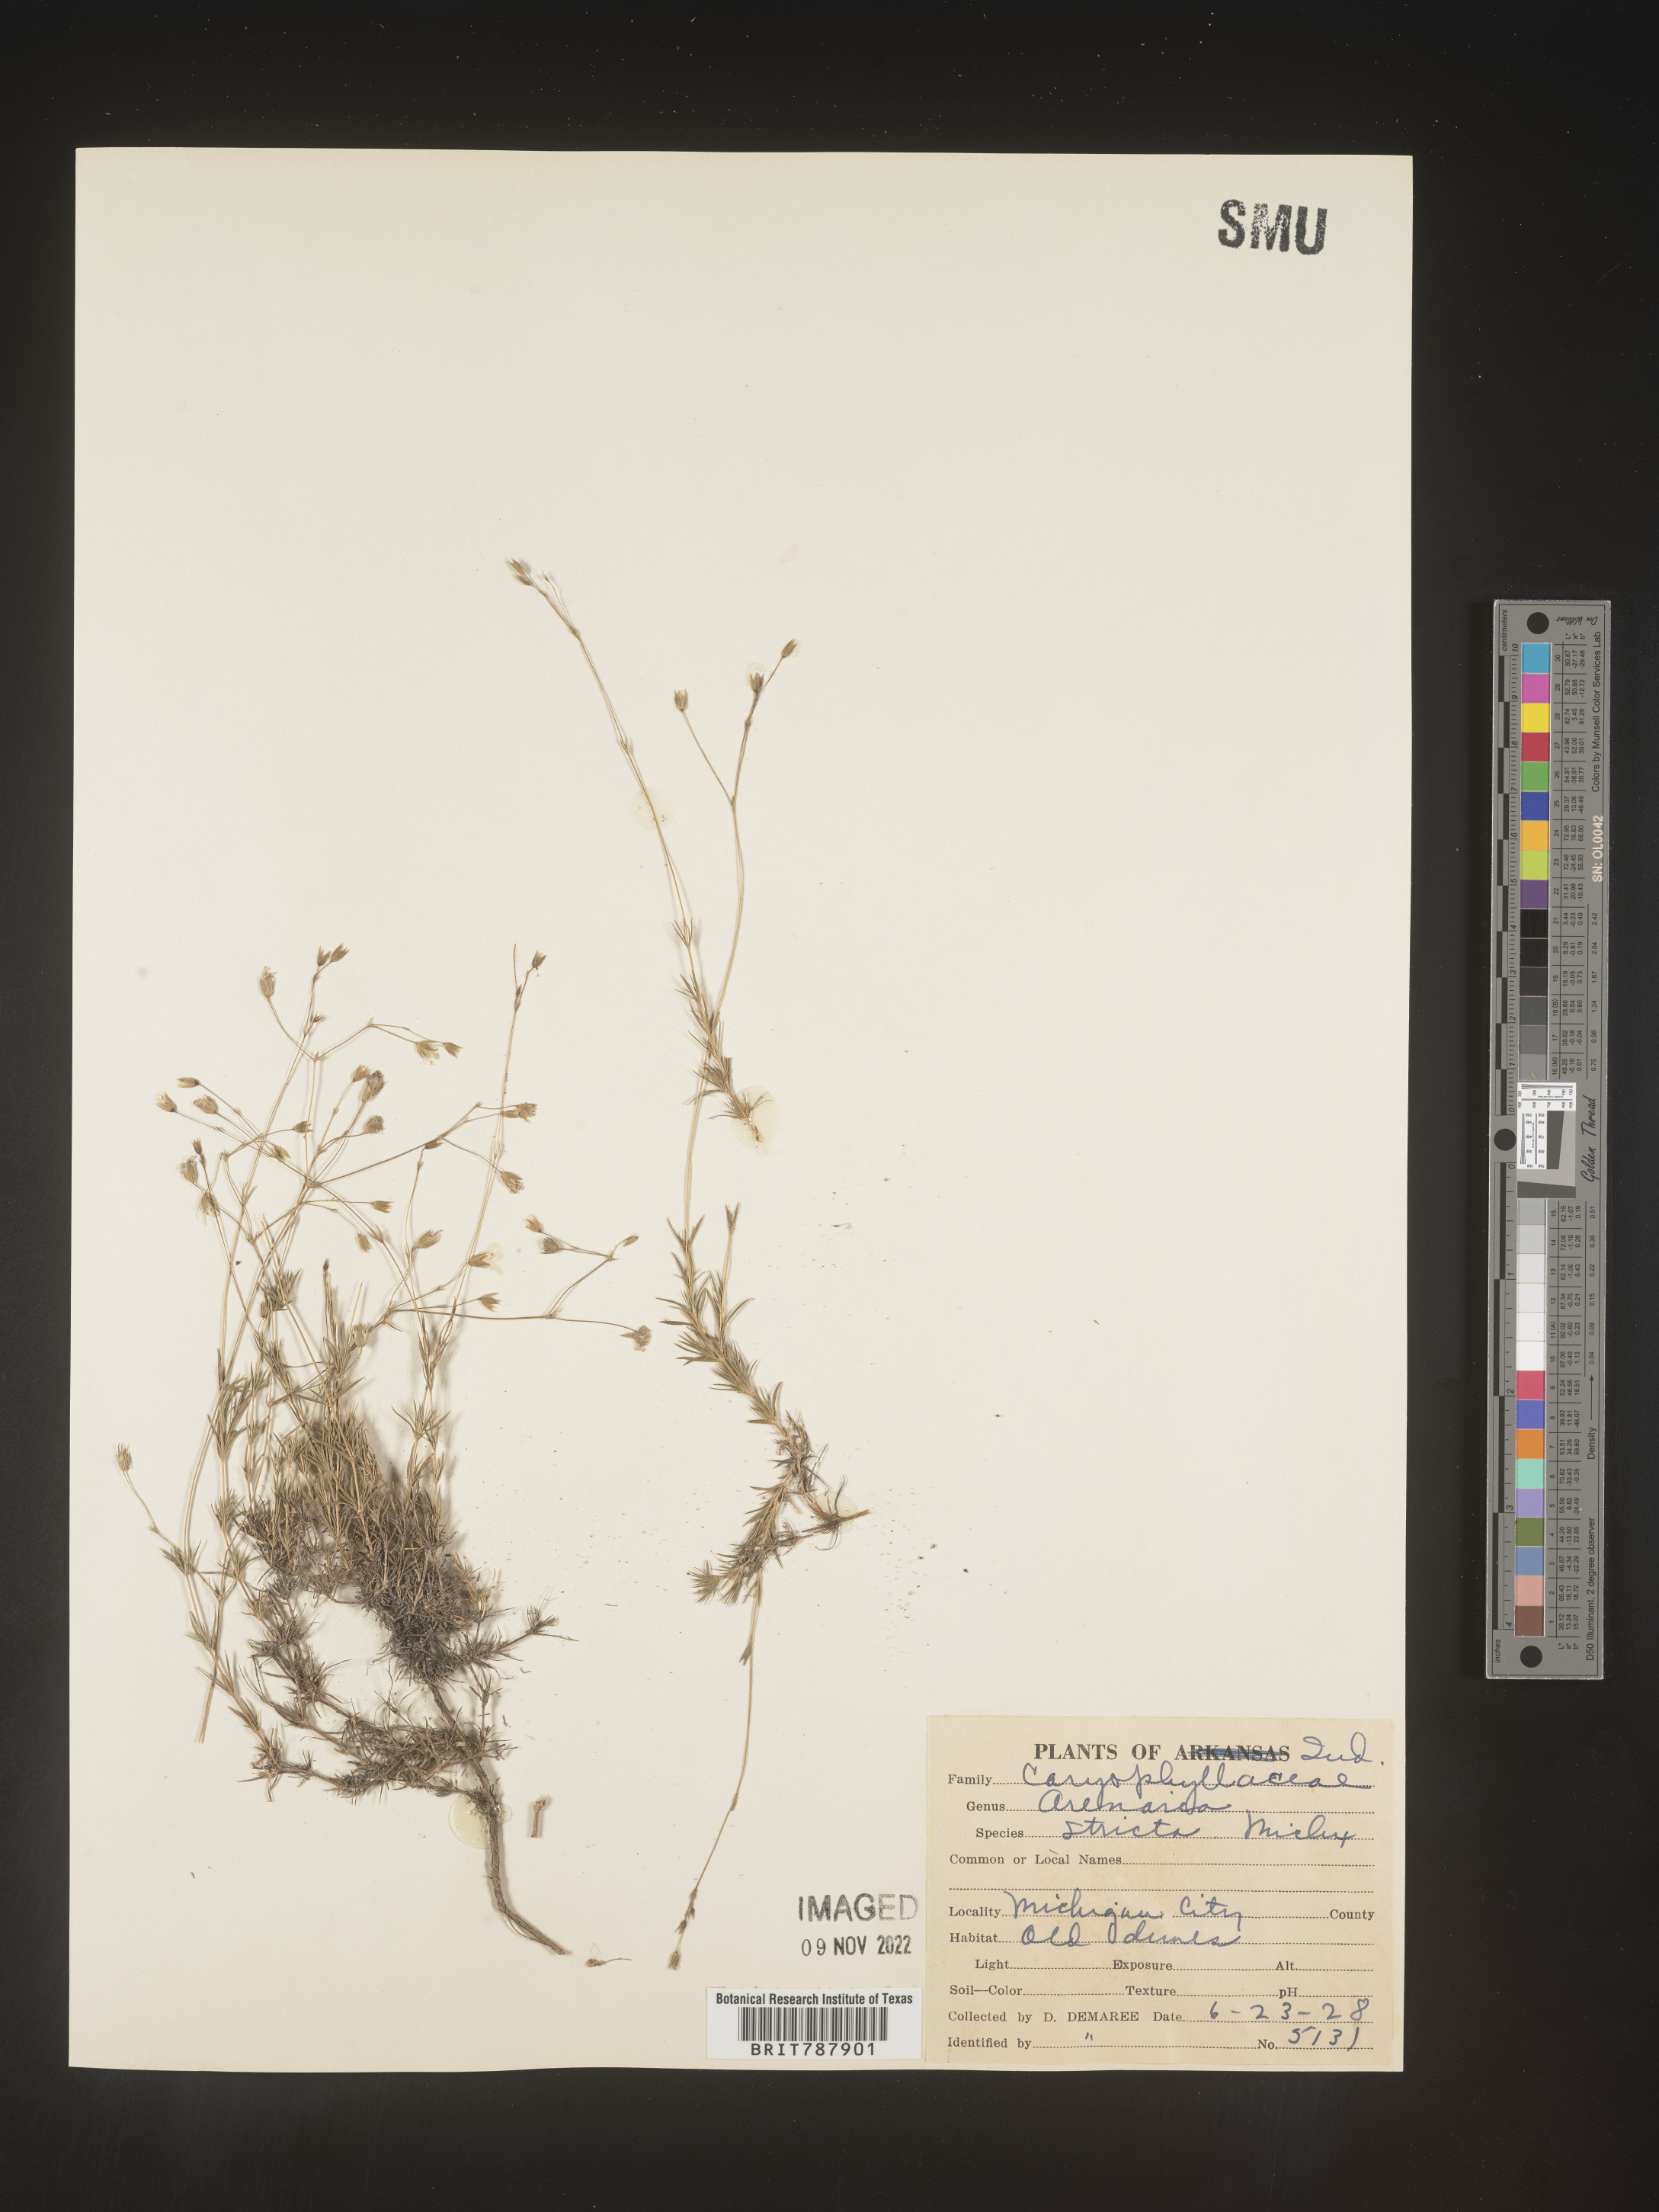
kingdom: Plantae
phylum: Tracheophyta
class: Magnoliopsida
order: Caryophyllales
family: Caryophyllaceae
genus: Sabulina
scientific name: Sabulina michauxii
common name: Michaux's stitchwort
